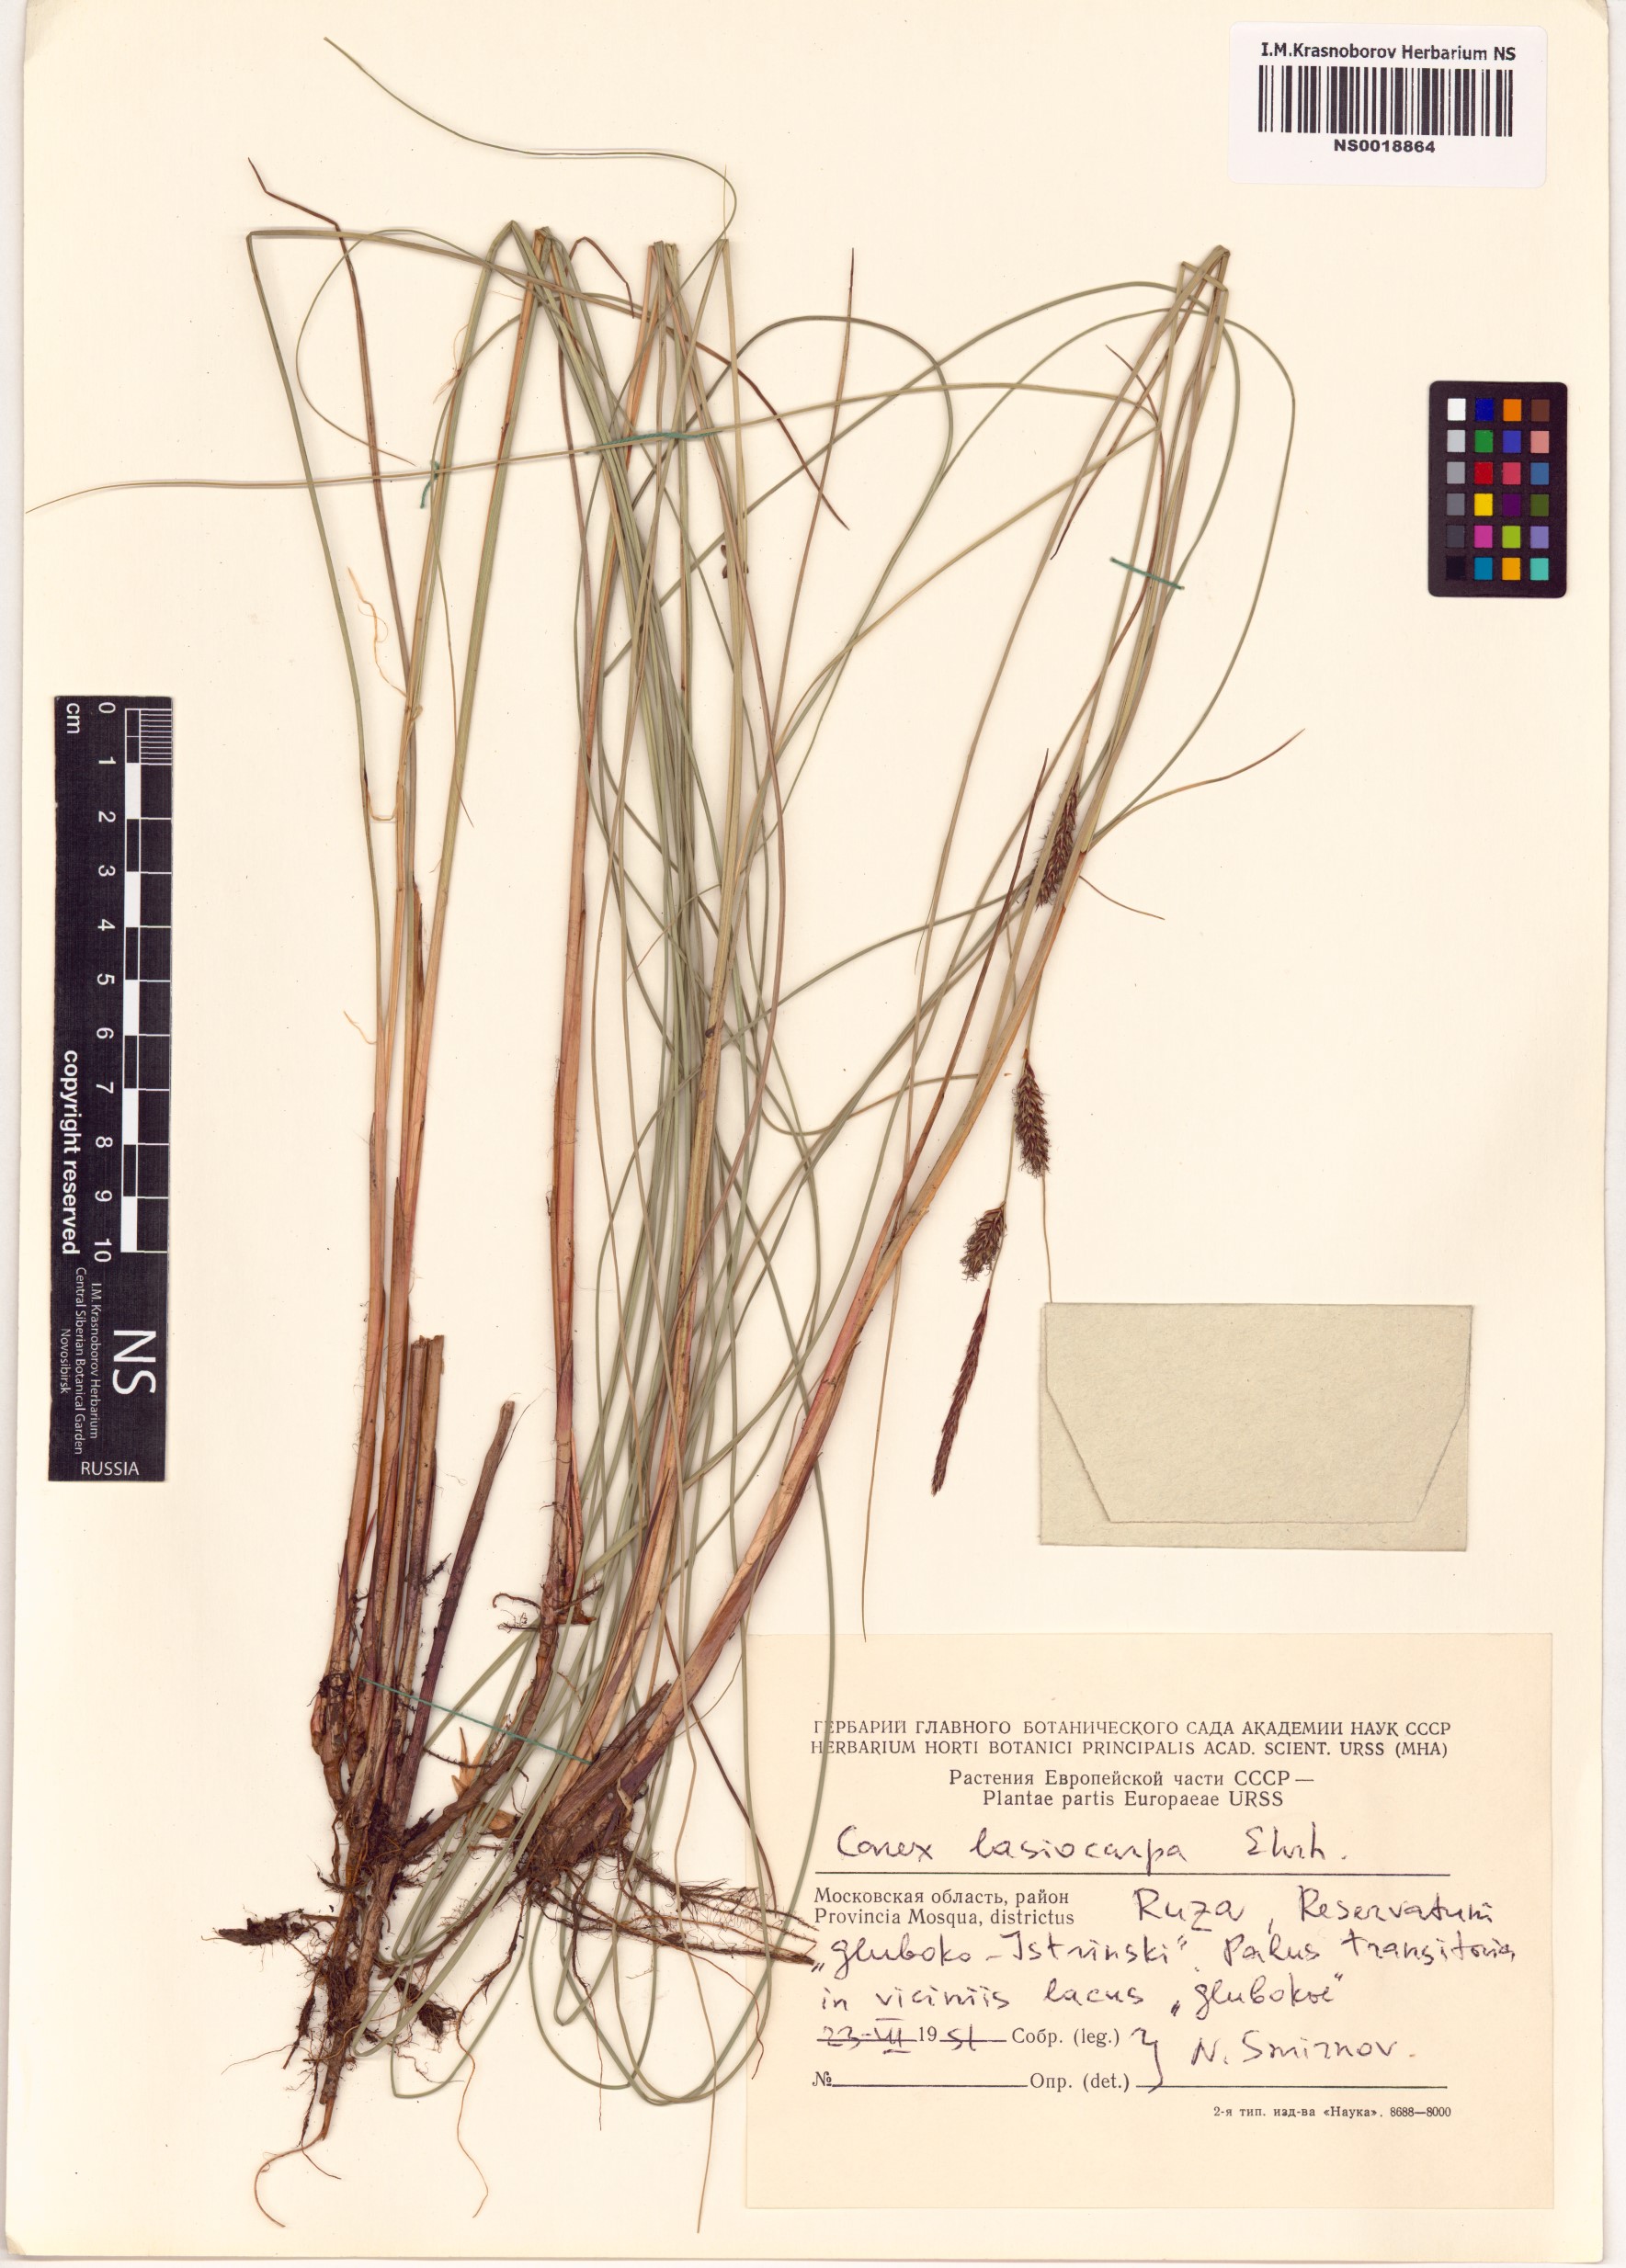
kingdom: Plantae
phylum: Tracheophyta
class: Liliopsida
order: Poales
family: Cyperaceae
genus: Carex
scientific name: Carex lasiocarpa
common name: Slender sedge
